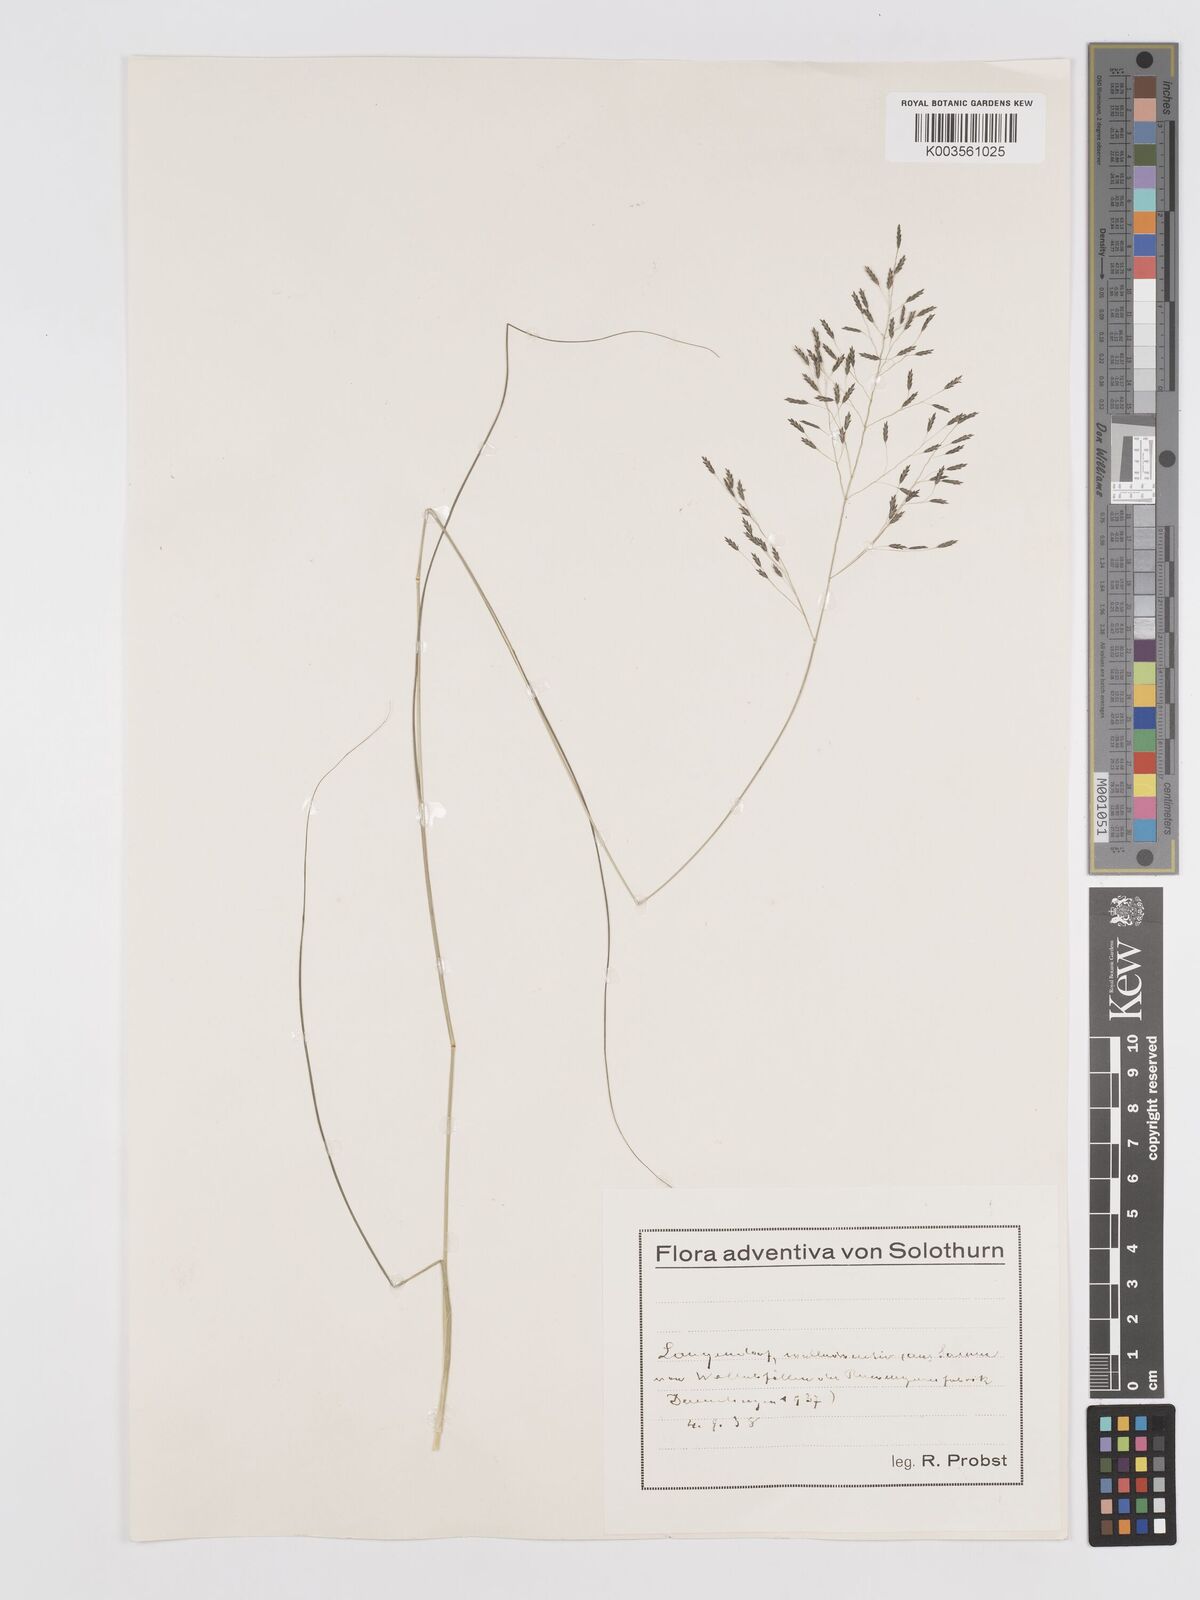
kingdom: Plantae
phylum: Tracheophyta
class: Liliopsida
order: Poales
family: Poaceae
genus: Eragrostis
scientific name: Eragrostis
